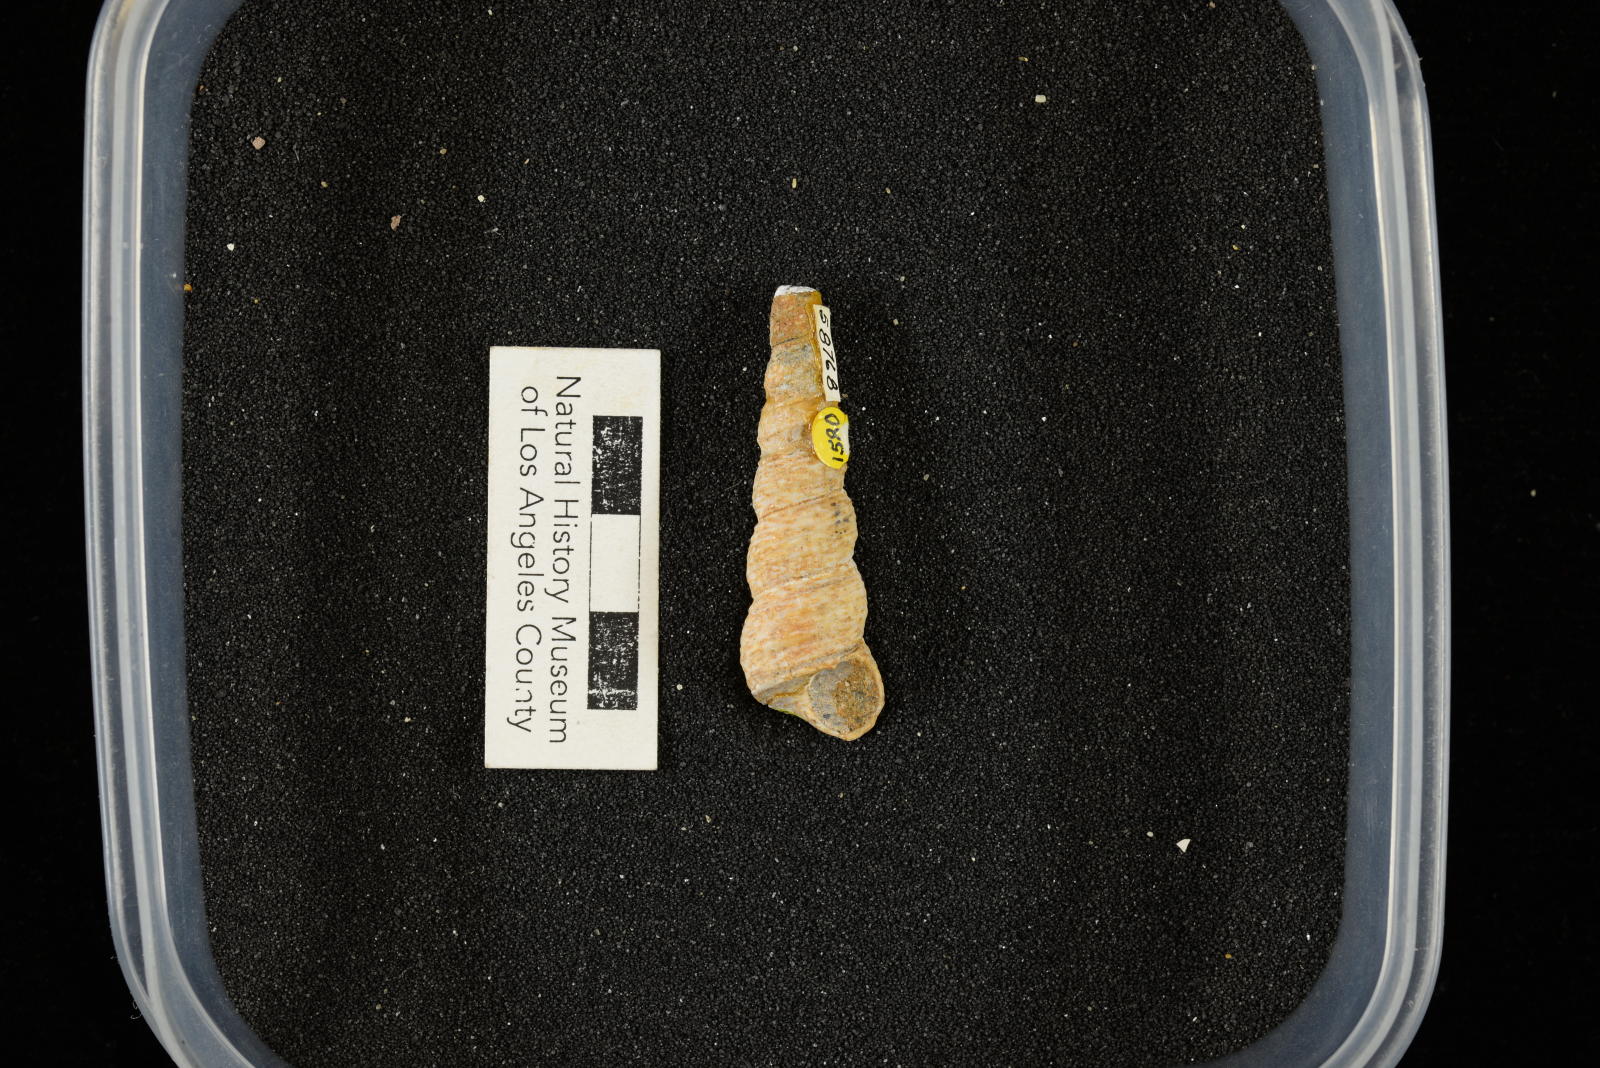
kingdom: Animalia
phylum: Mollusca
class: Gastropoda
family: Turritellidae
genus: Turritella
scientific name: Turritella
